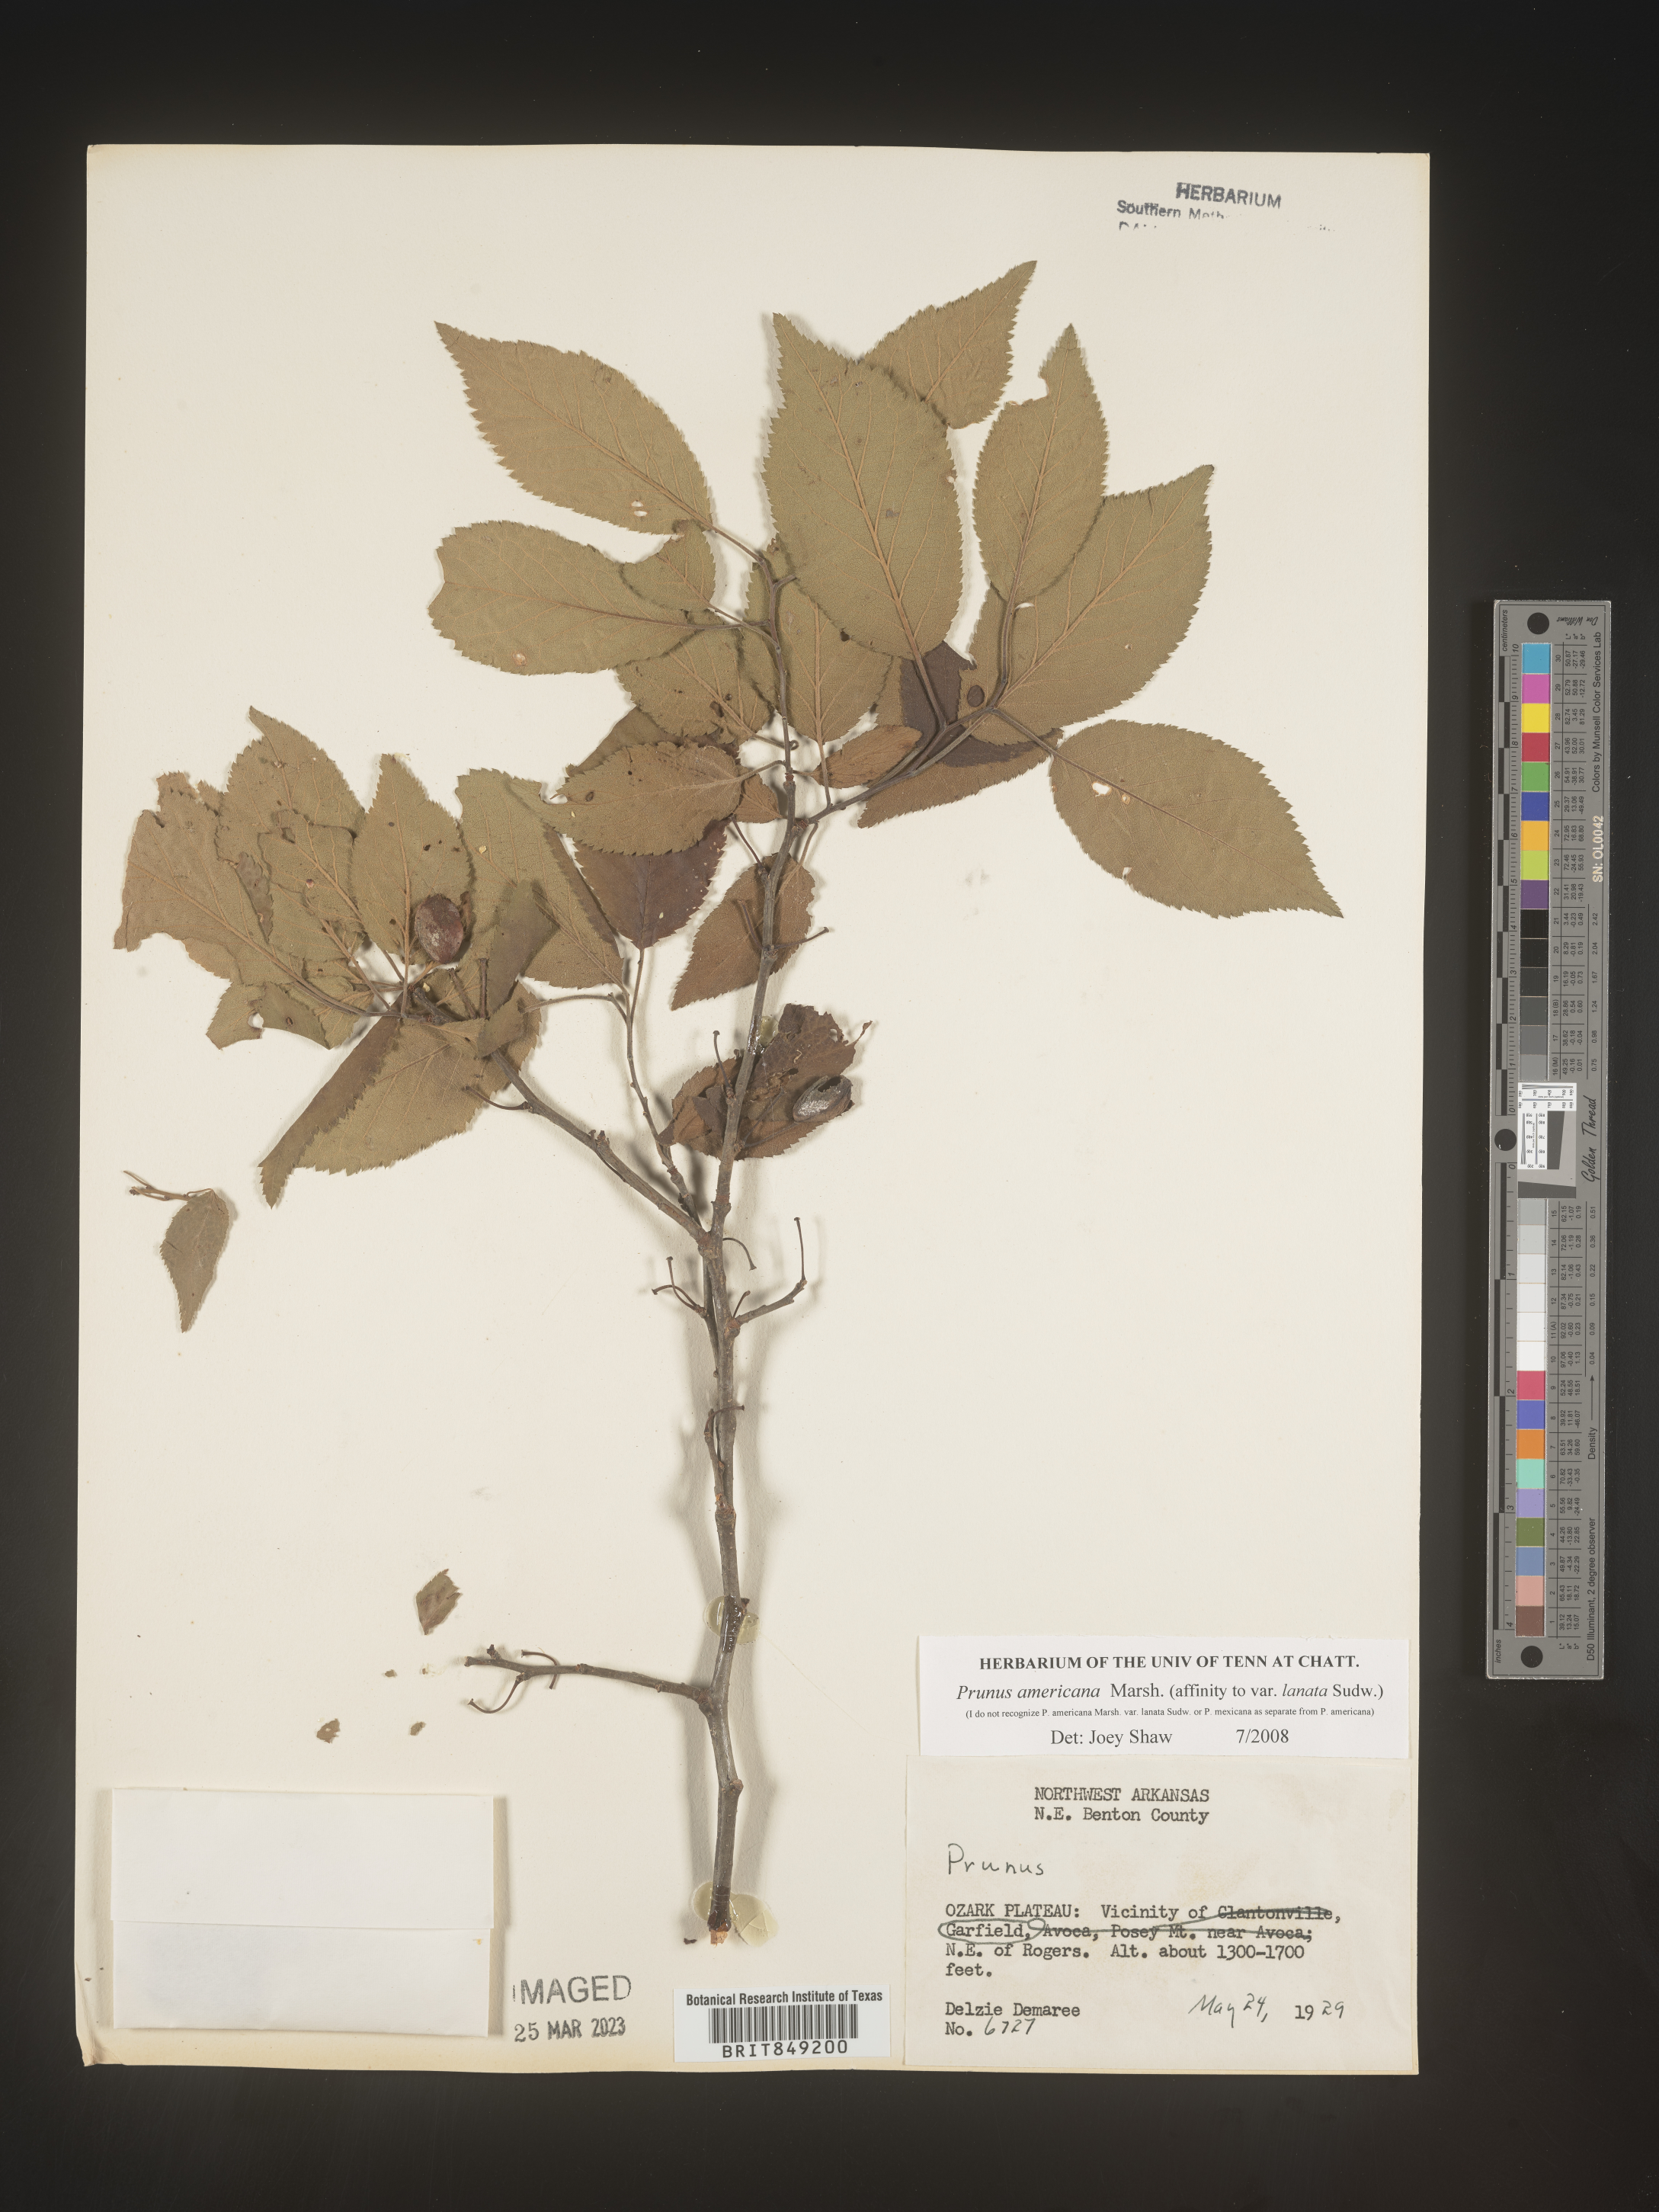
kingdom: Plantae
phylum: Tracheophyta
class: Magnoliopsida
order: Rosales
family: Rosaceae
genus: Prunus
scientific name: Prunus americana
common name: American plum
